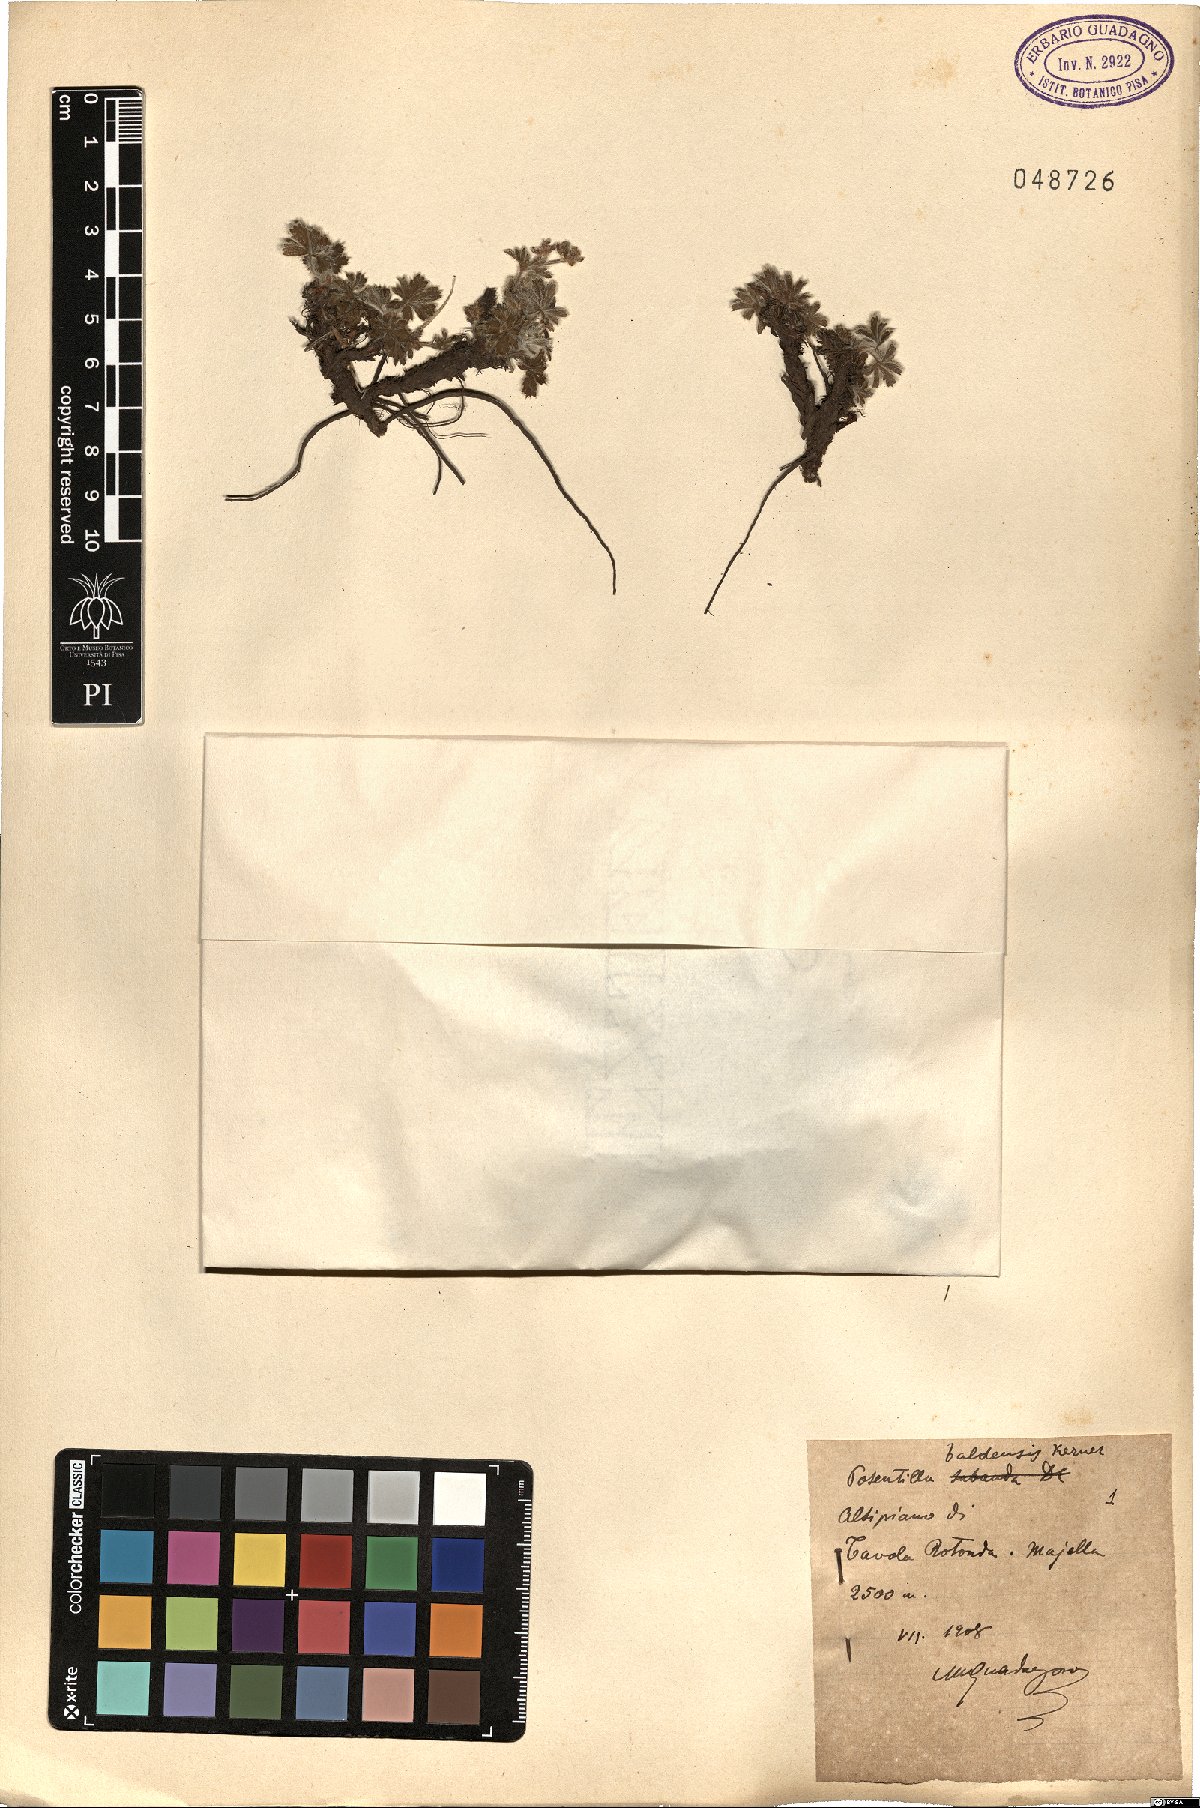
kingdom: Plantae
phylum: Tracheophyta
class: Magnoliopsida
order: Rosales
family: Rosaceae
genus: Potentilla
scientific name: Potentilla crantzii
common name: Alpine cinquefoil
